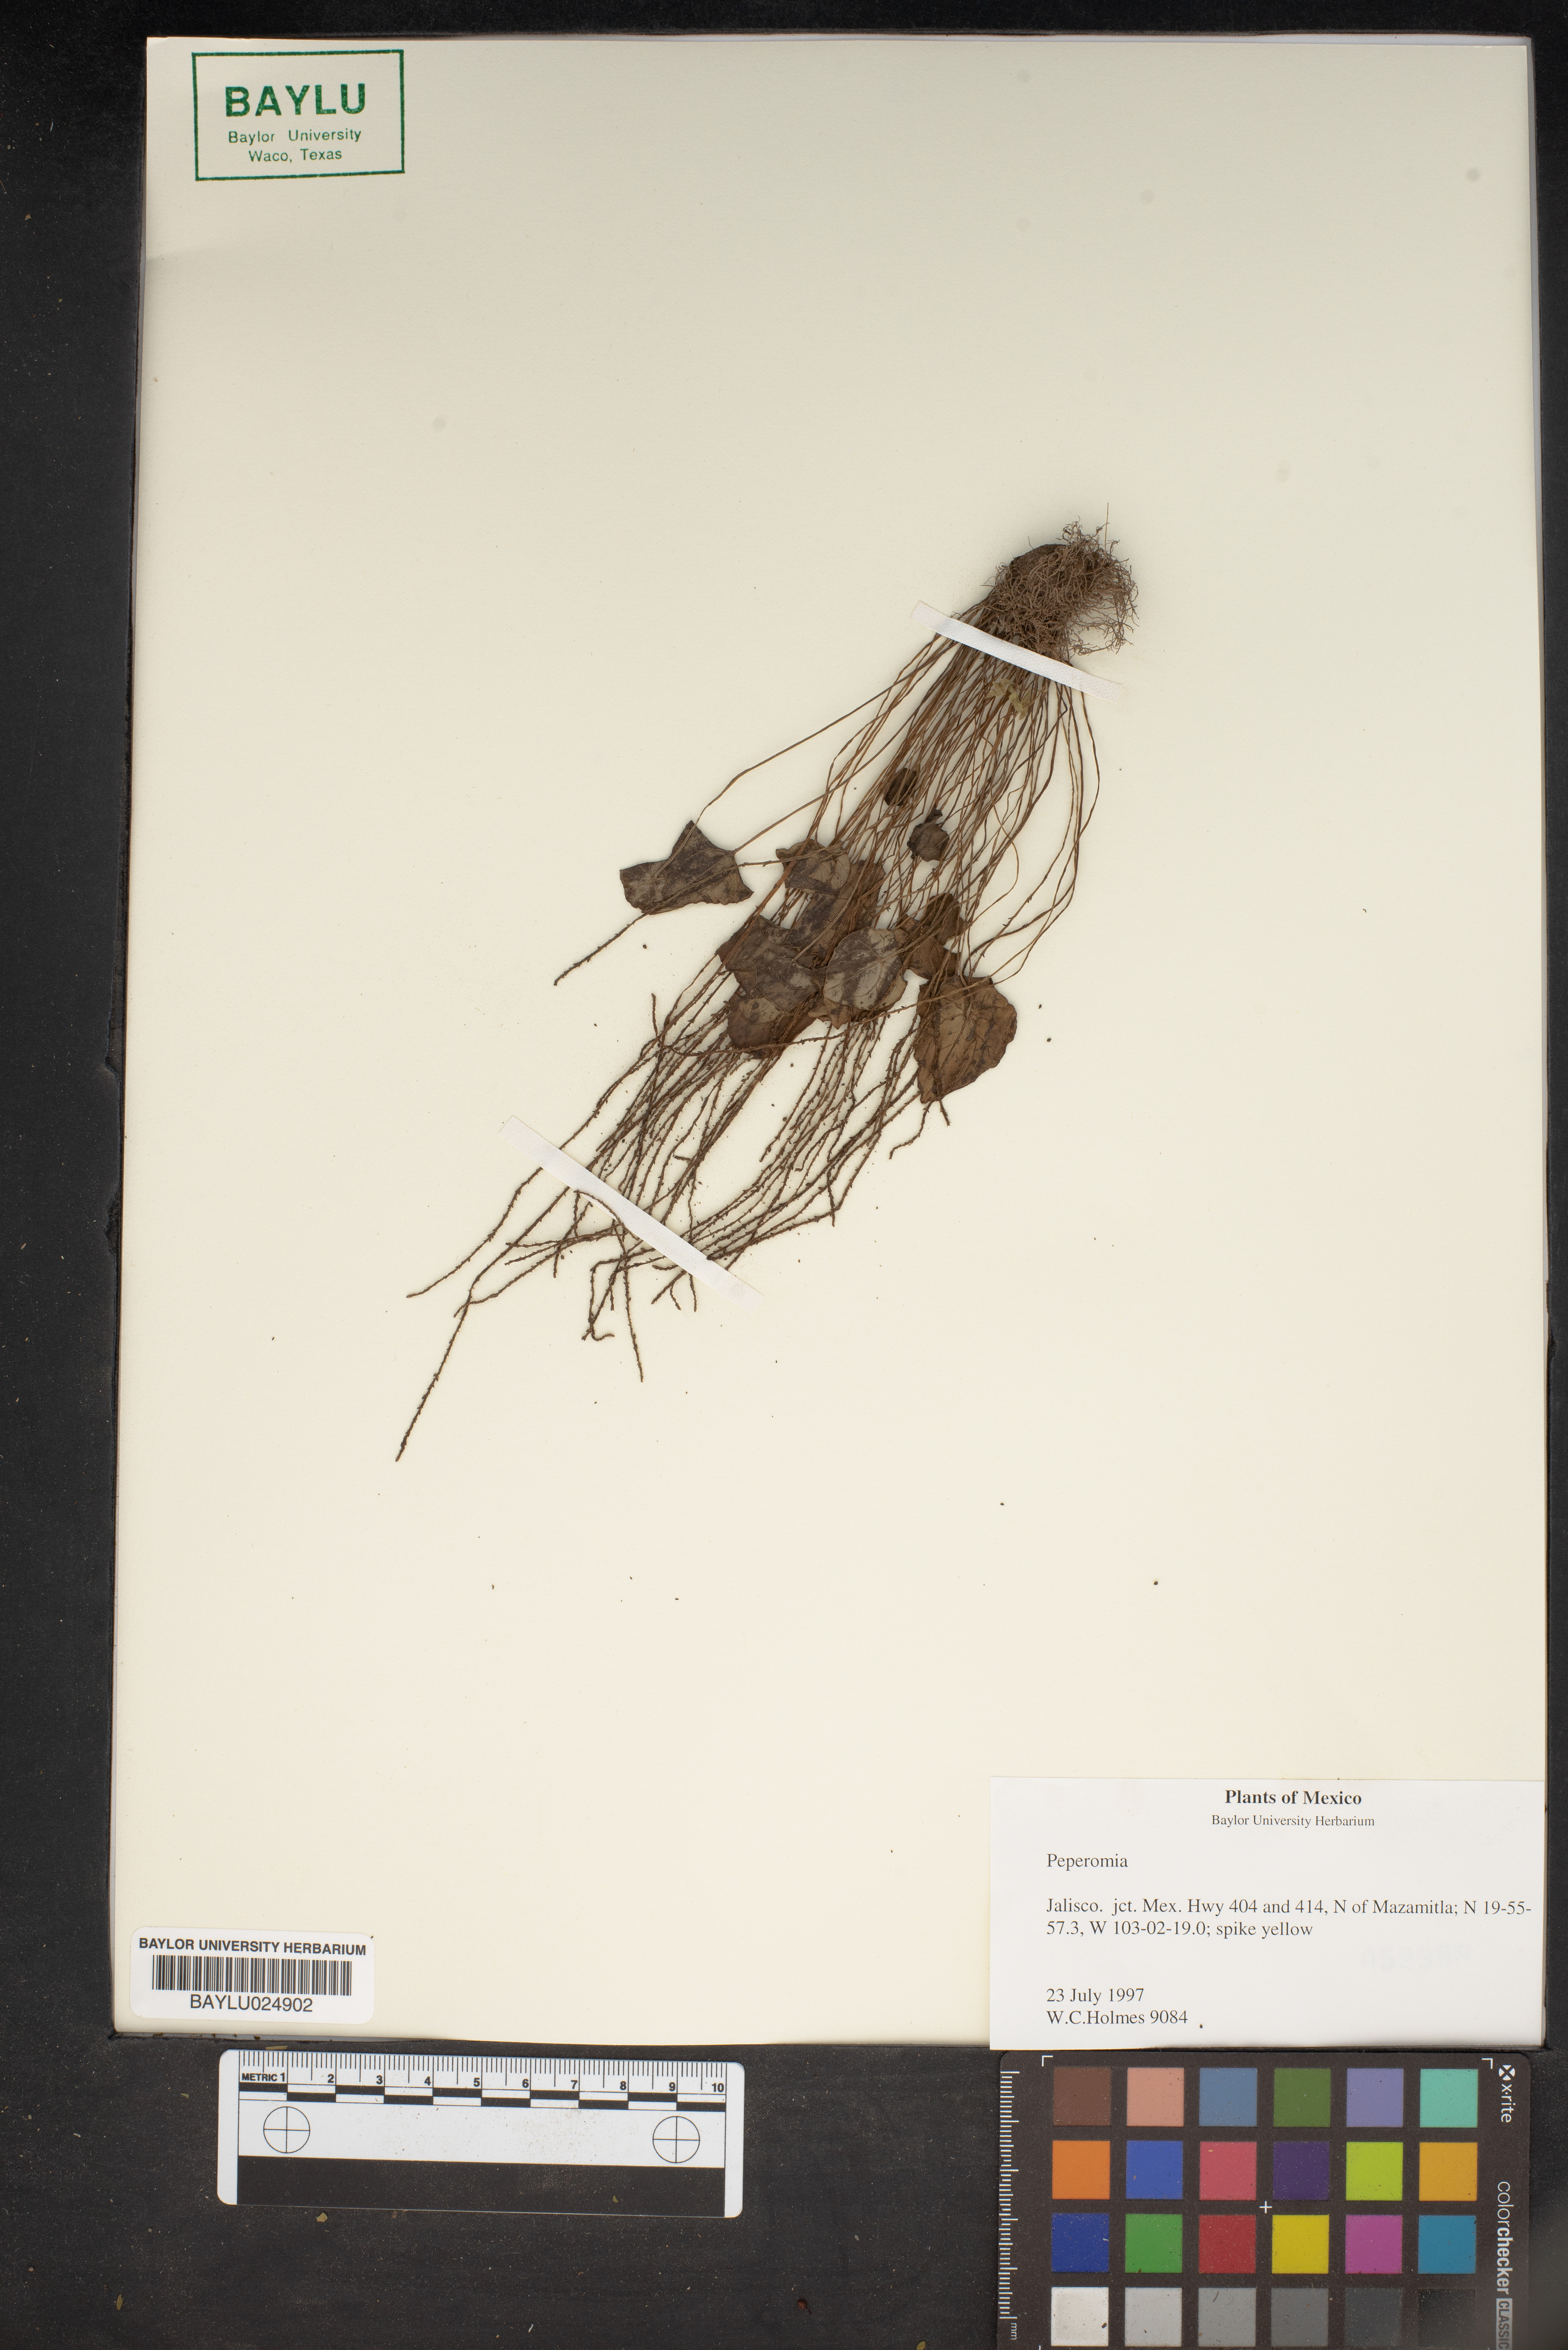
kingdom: Plantae
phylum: Tracheophyta
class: Magnoliopsida
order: Piperales
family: Piperaceae
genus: Peperomia
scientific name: Peperomia
